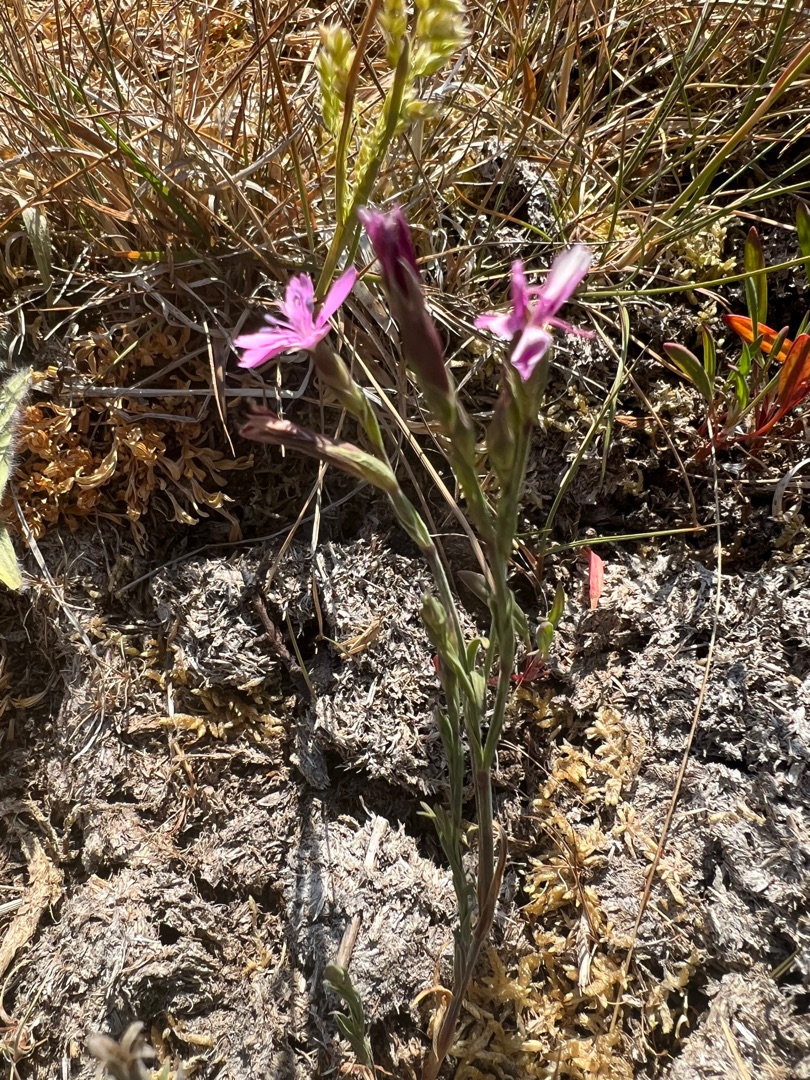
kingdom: Plantae
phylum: Tracheophyta
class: Magnoliopsida
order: Caryophyllales
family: Caryophyllaceae
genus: Dianthus
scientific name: Dianthus deltoides
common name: Bakke-nellike
